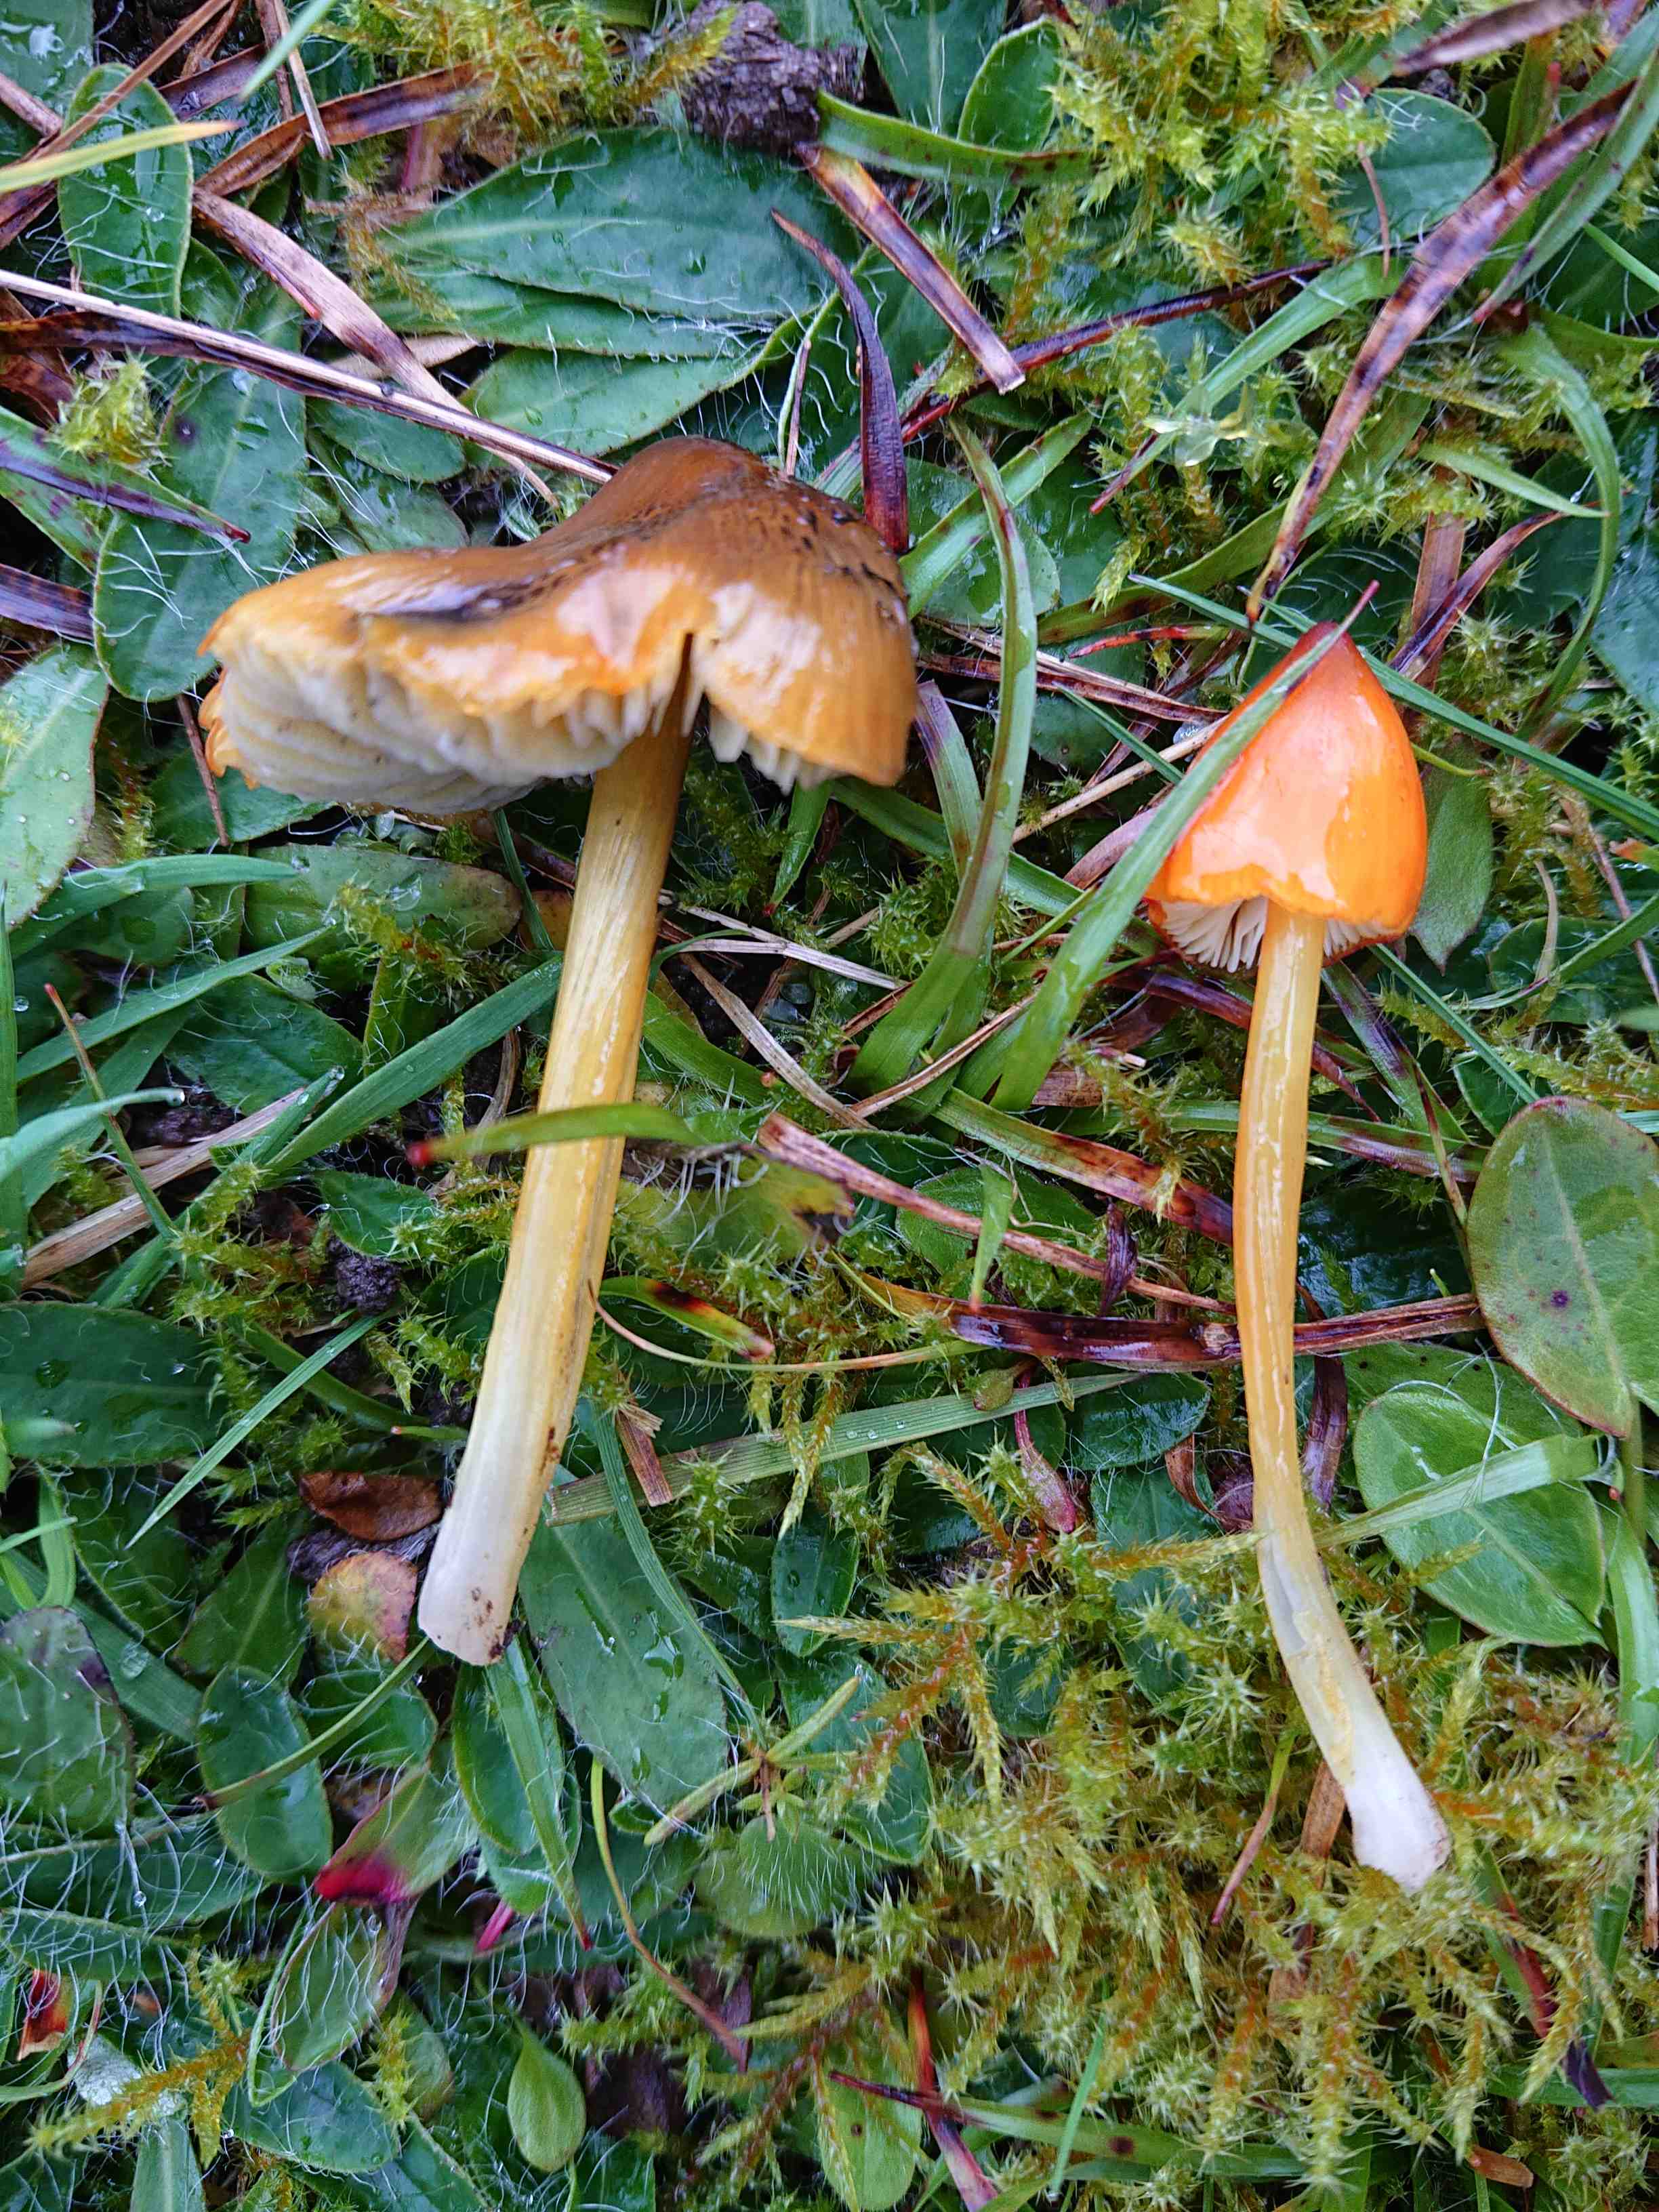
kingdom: Fungi
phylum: Basidiomycota
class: Agaricomycetes
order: Agaricales
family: Hygrophoraceae
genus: Hygrocybe
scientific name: Hygrocybe conica
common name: kegle-vokshat
